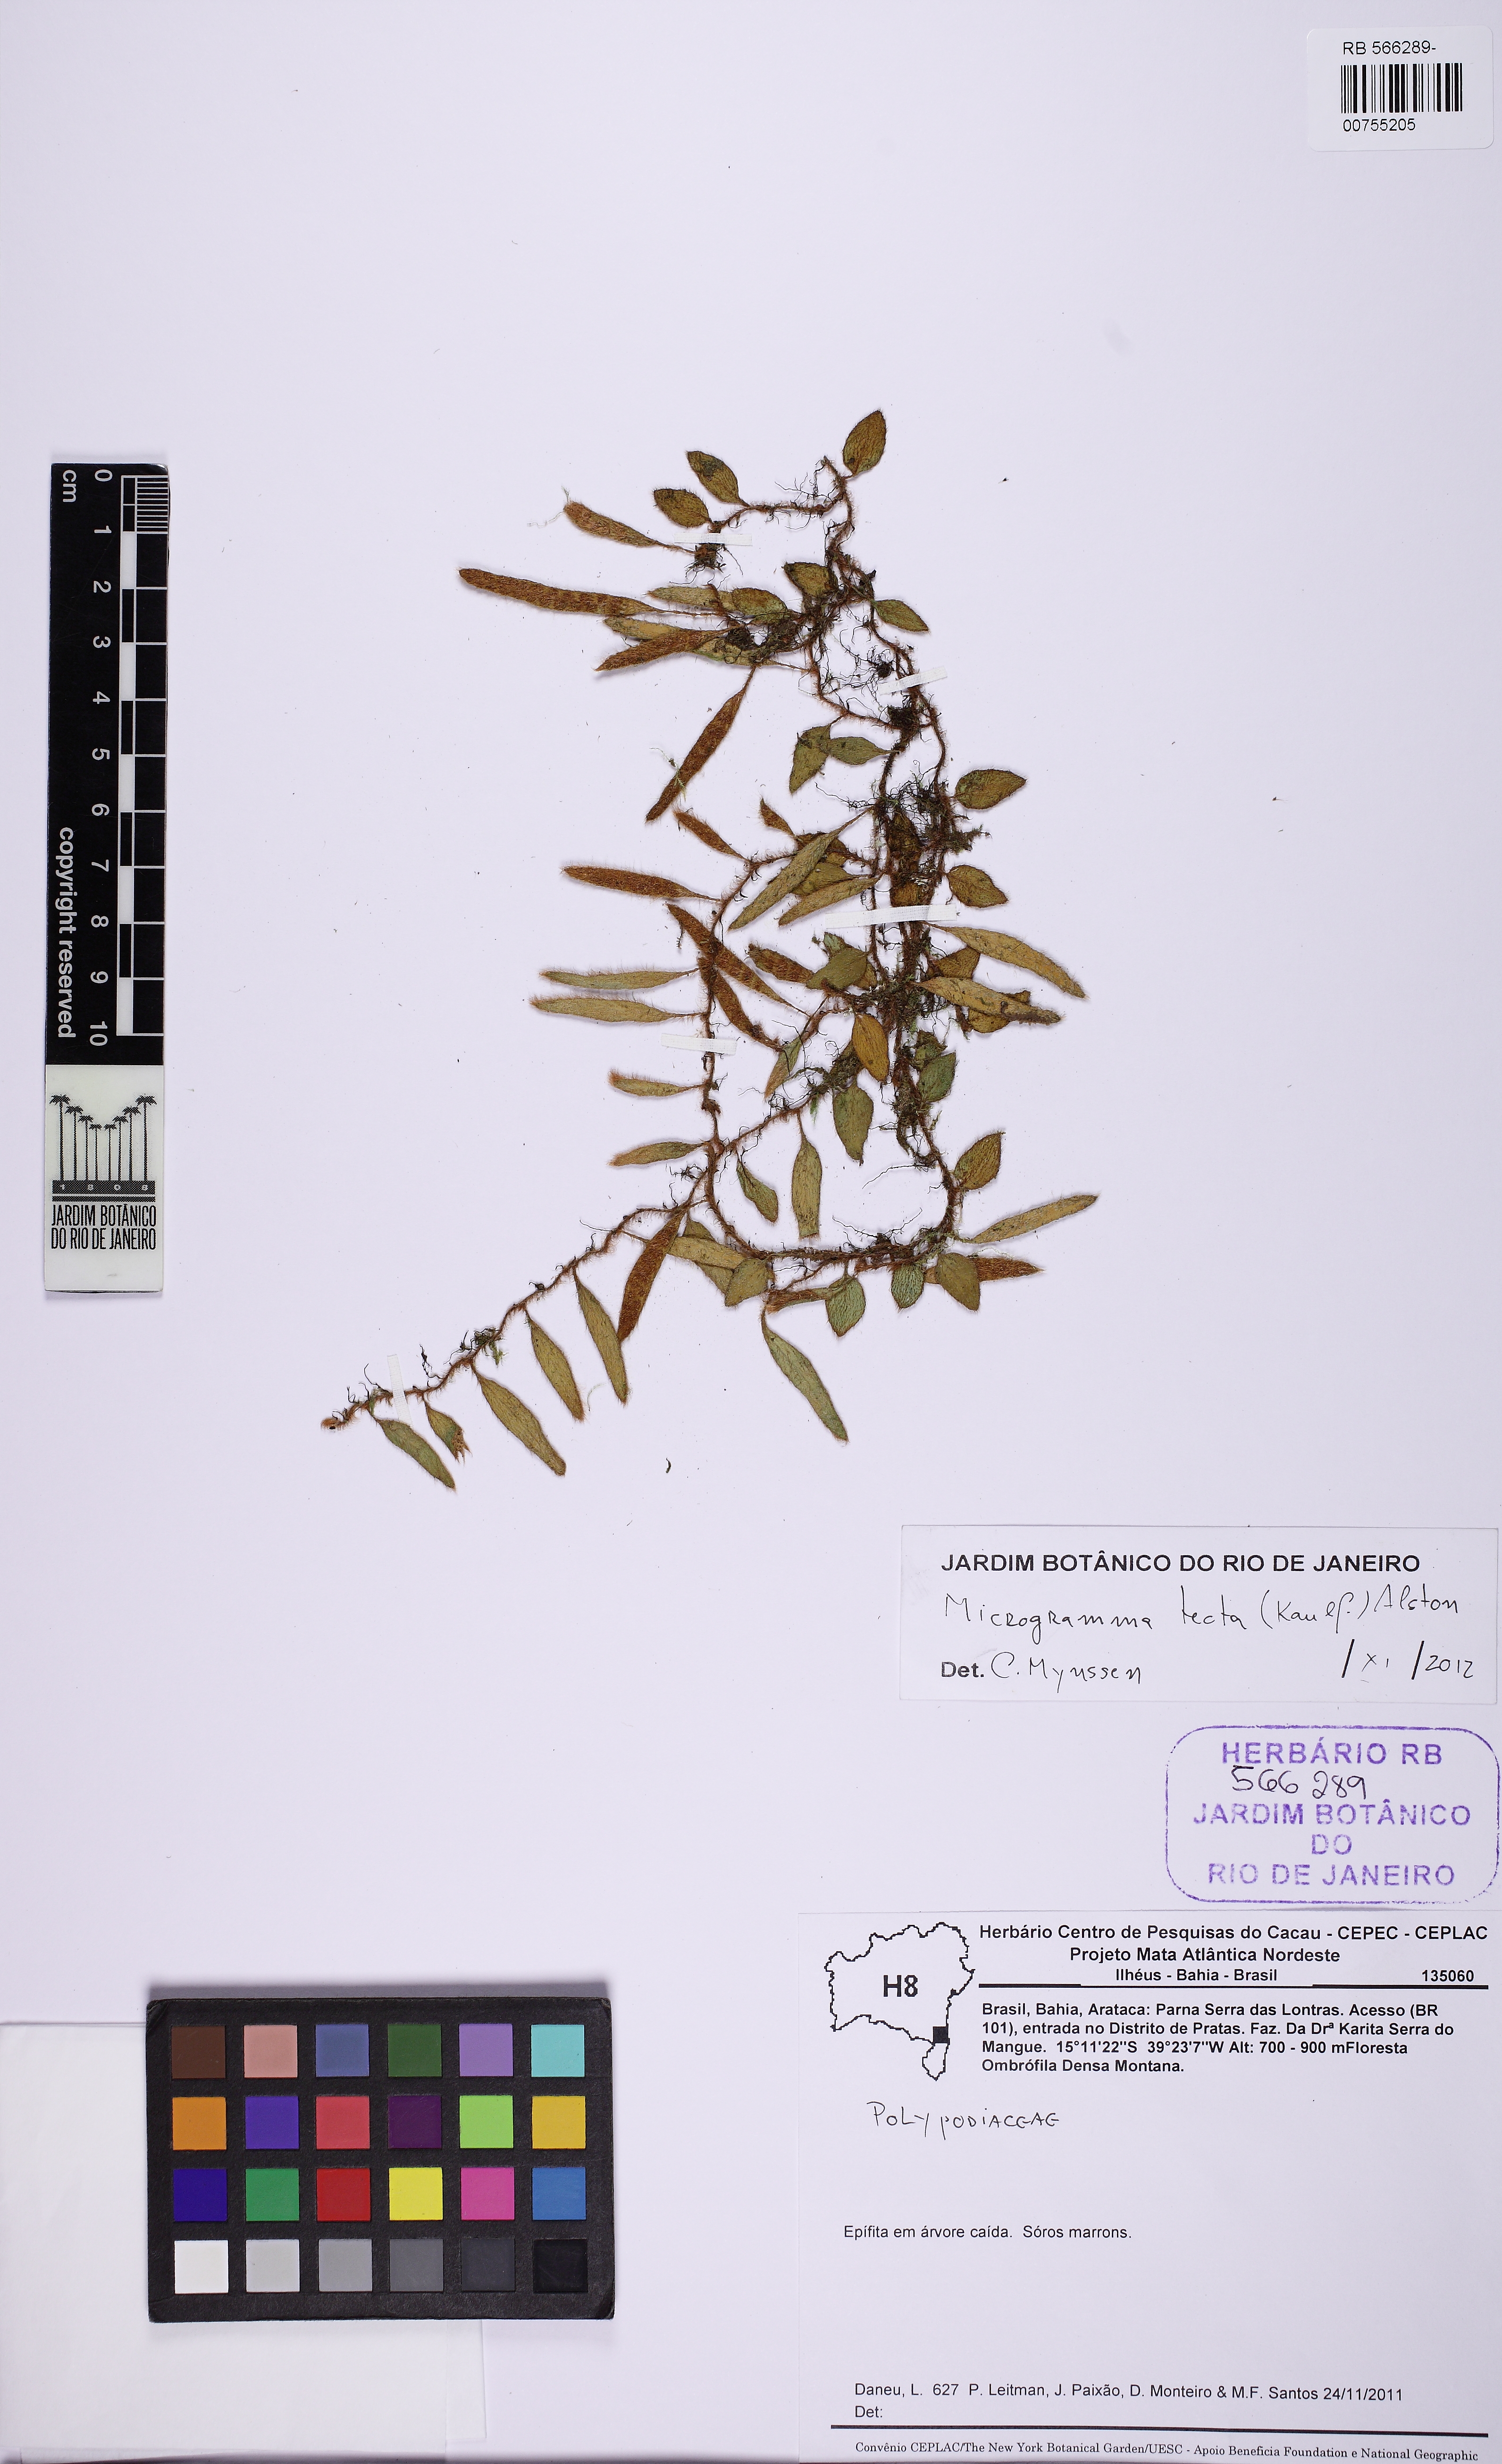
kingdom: Plantae
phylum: Tracheophyta
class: Polypodiopsida
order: Polypodiales
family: Polypodiaceae
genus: Microgramma
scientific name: Microgramma tecta
